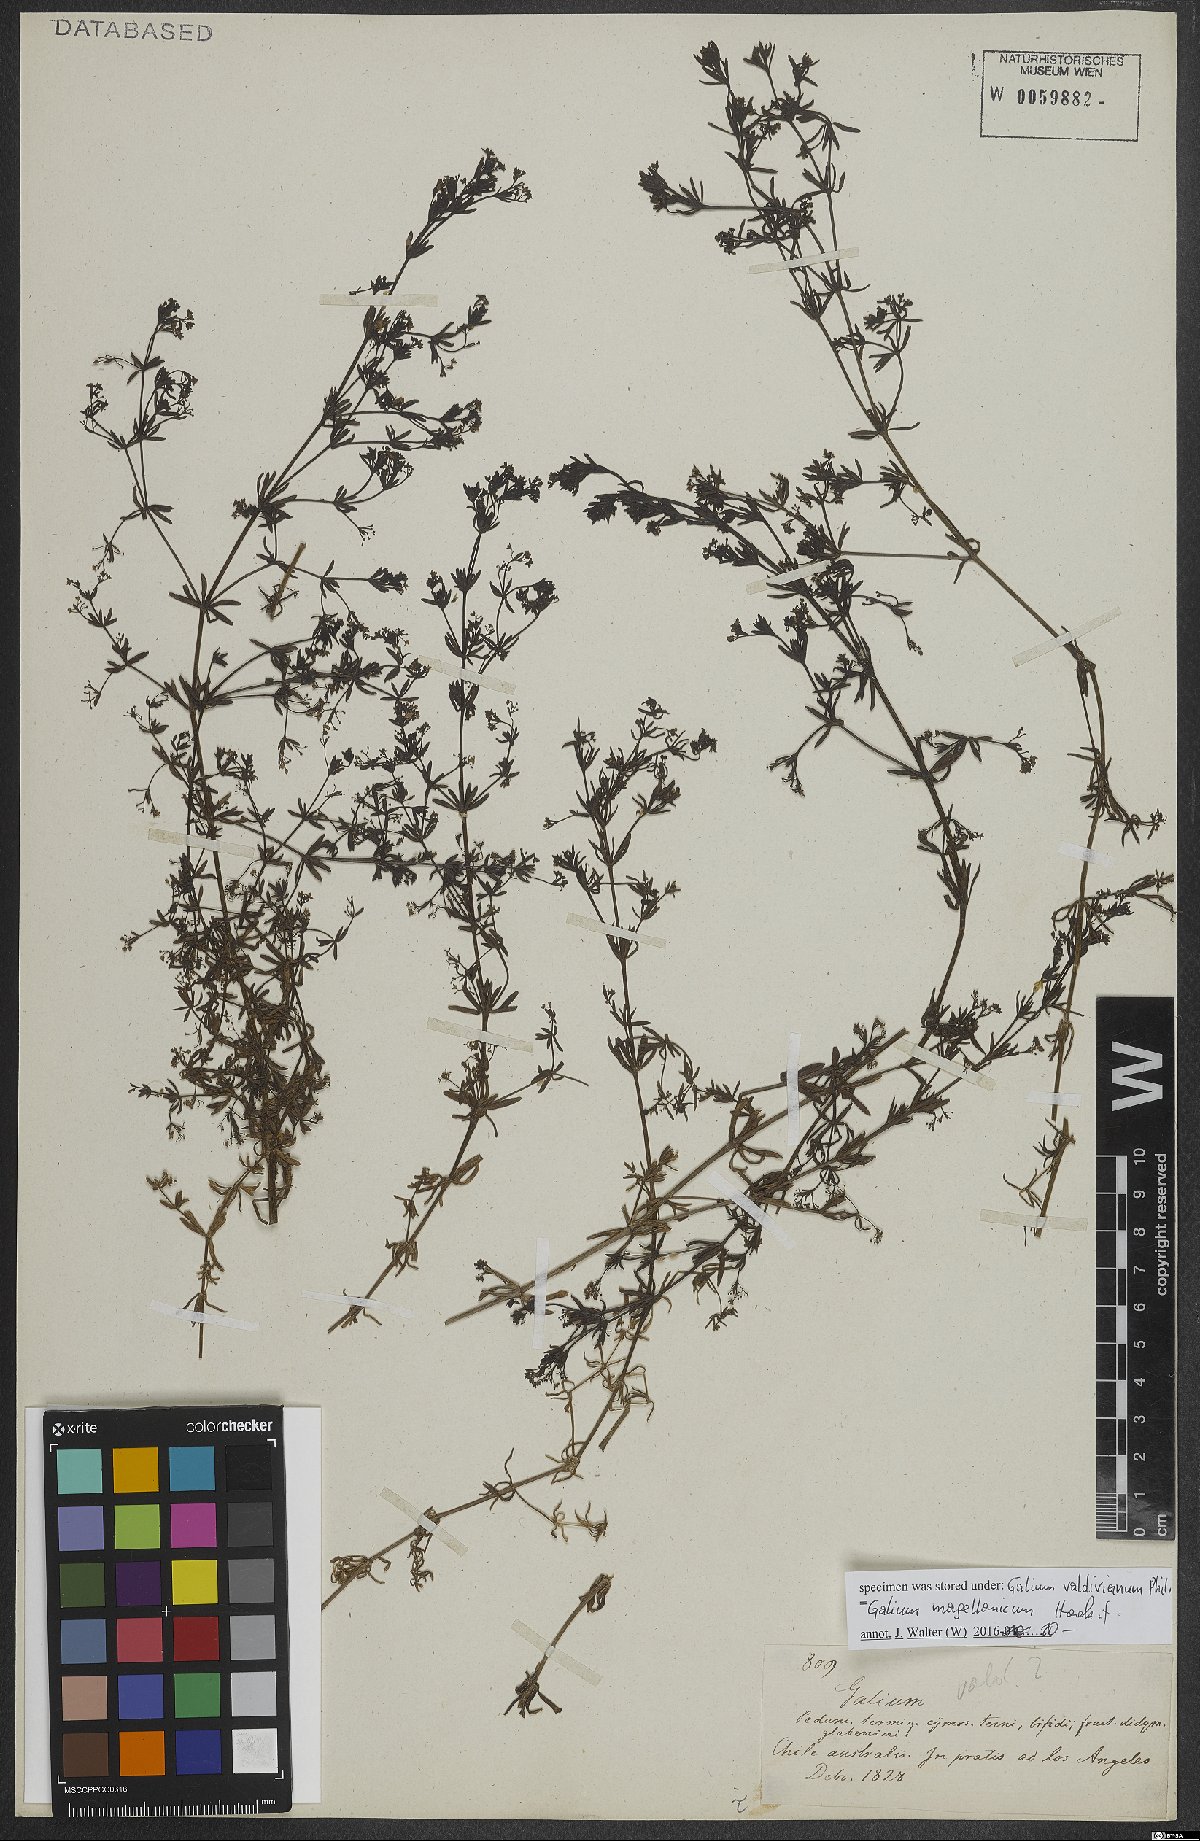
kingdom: Plantae
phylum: Tracheophyta
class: Magnoliopsida
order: Gentianales
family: Rubiaceae
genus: Galium
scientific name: Galium magellanicum
